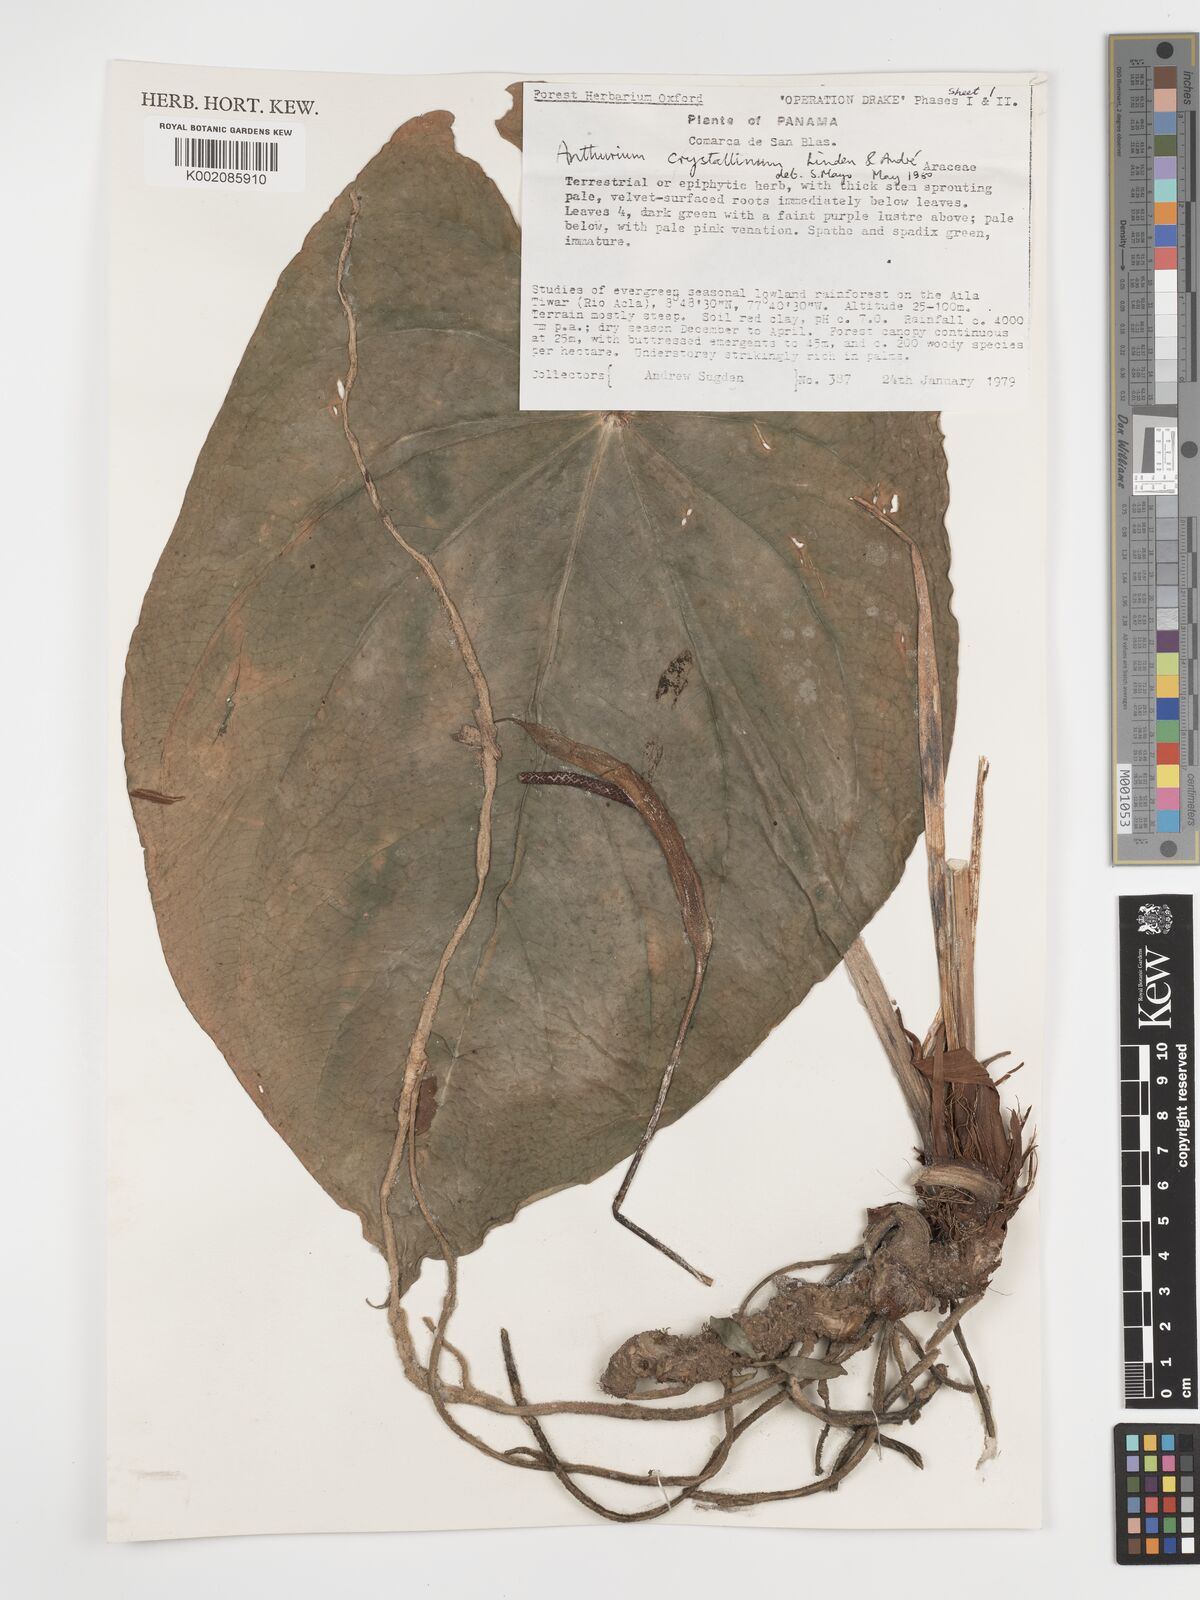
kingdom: Plantae
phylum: Tracheophyta
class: Liliopsida
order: Alismatales
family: Araceae
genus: Anthurium
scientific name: Anthurium crystallinum
